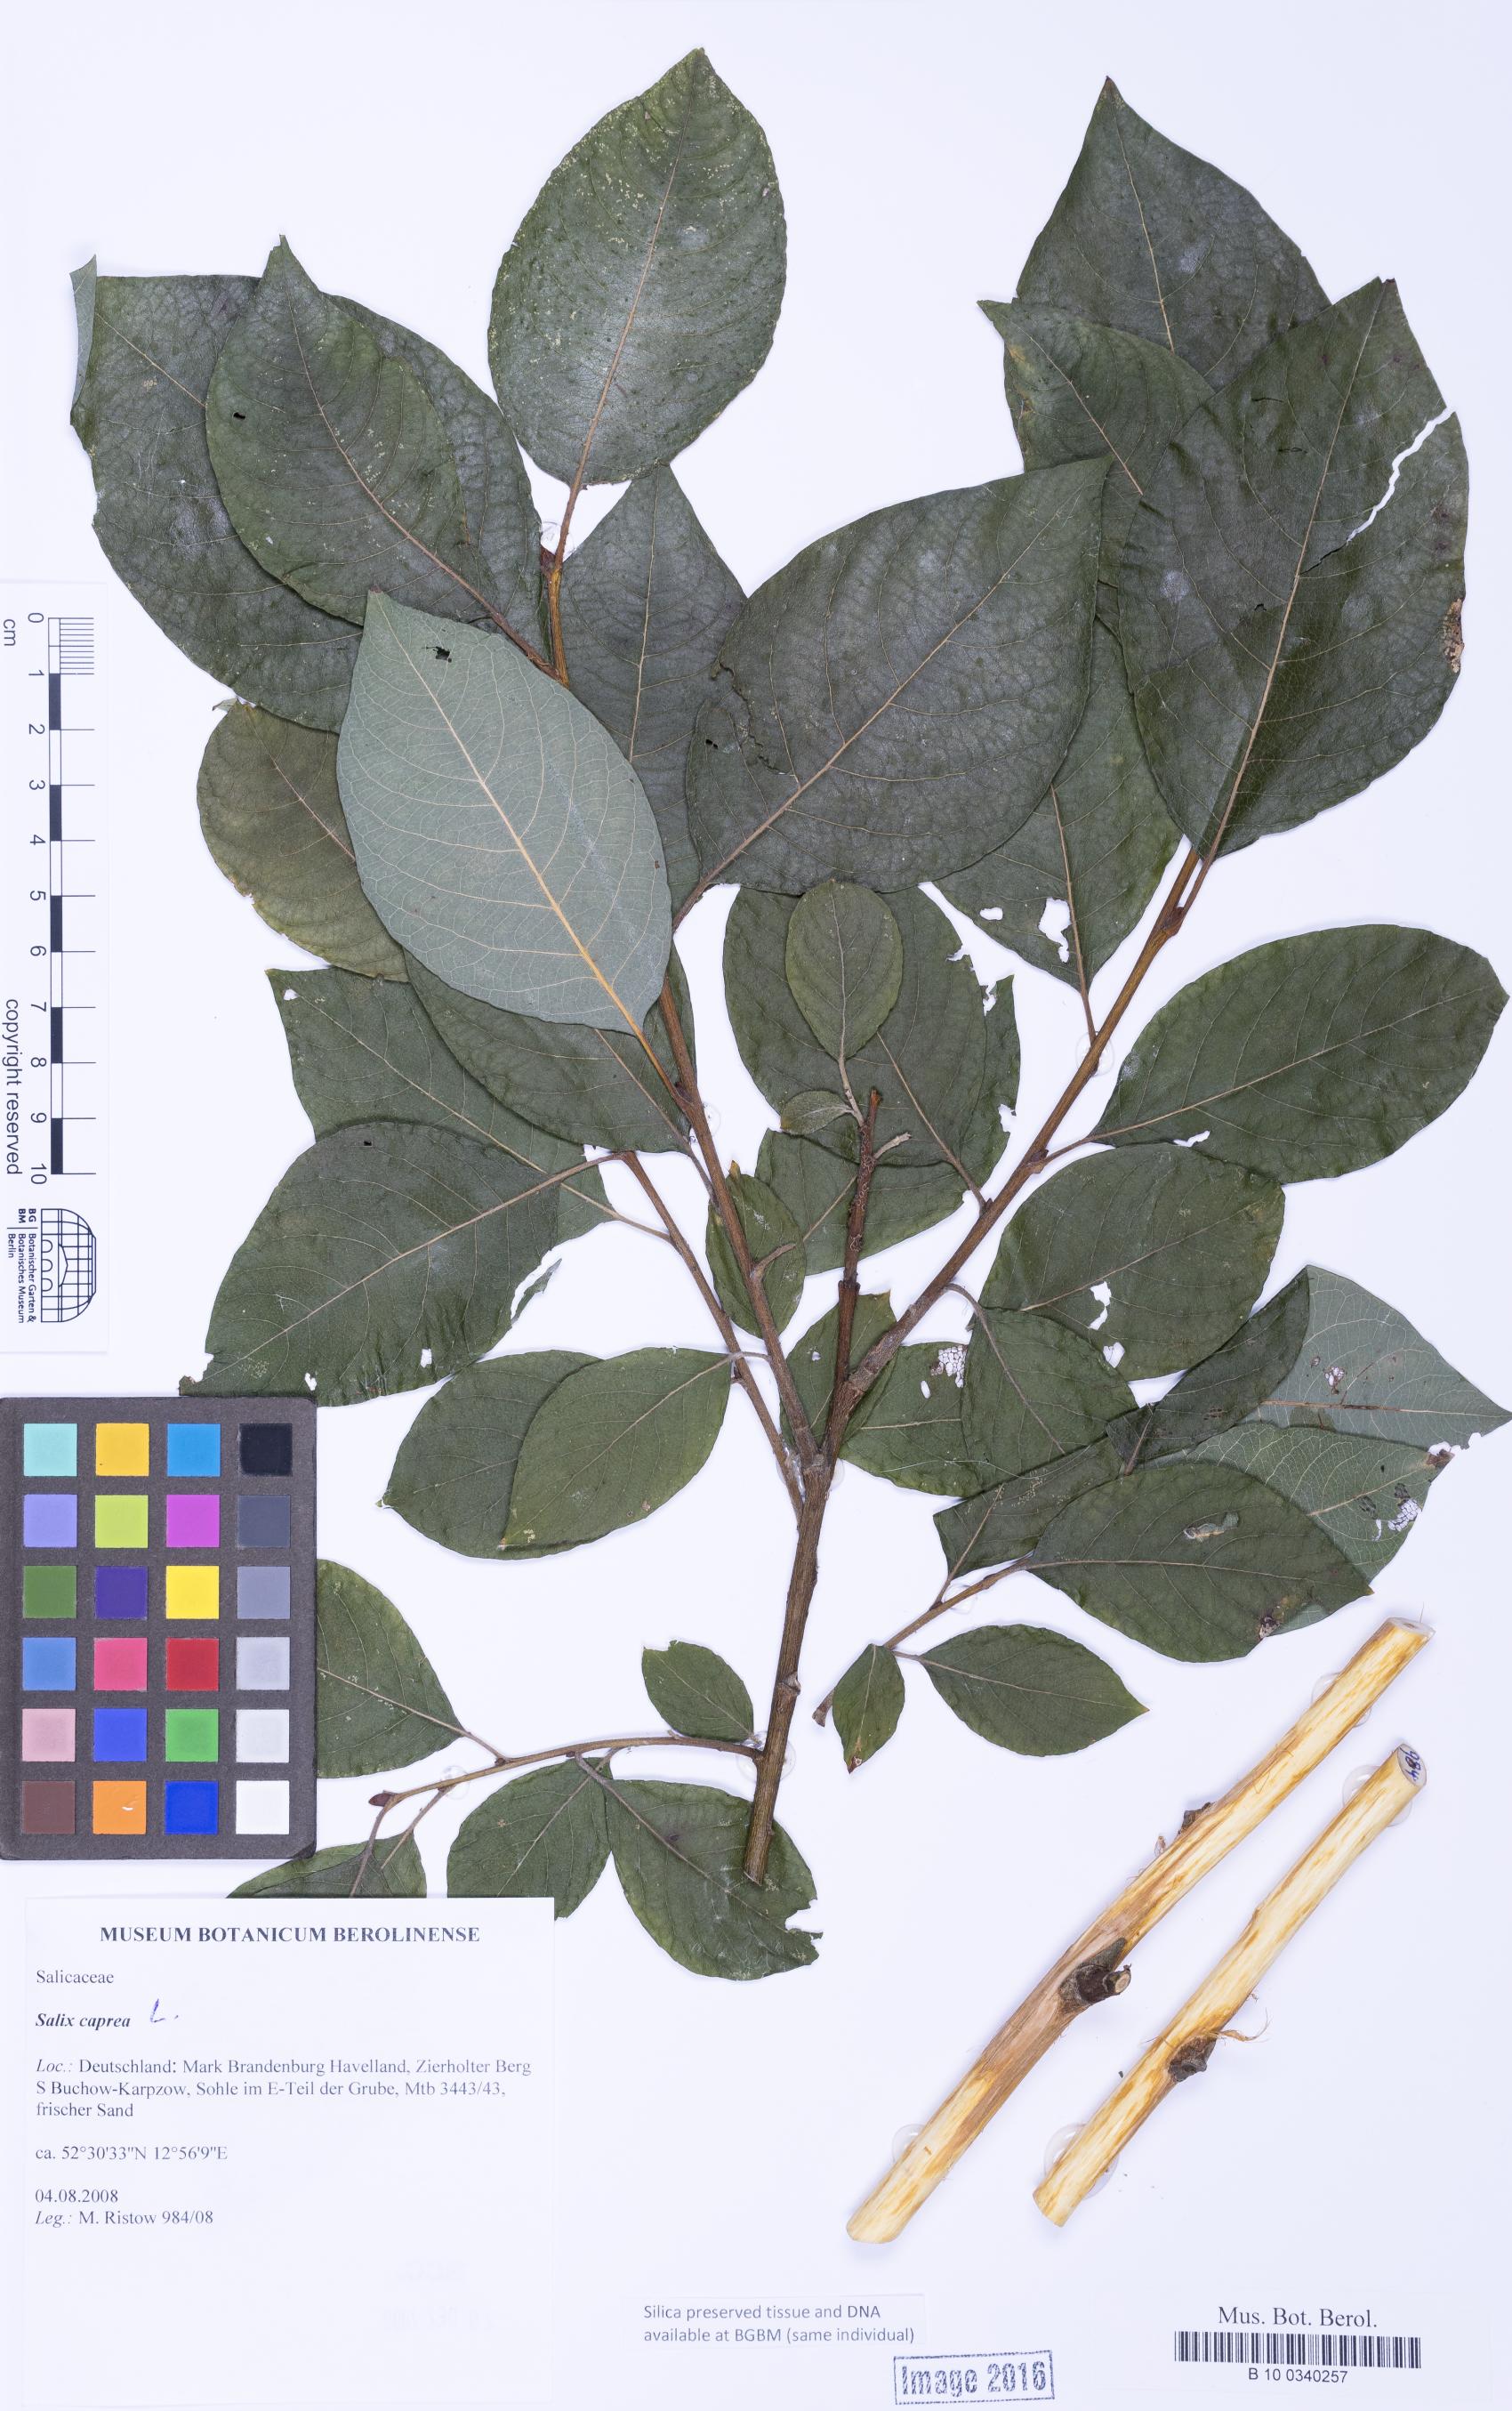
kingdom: Plantae
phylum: Tracheophyta
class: Magnoliopsida
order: Malpighiales
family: Salicaceae
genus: Salix
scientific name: Salix caprea
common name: Goat willow
